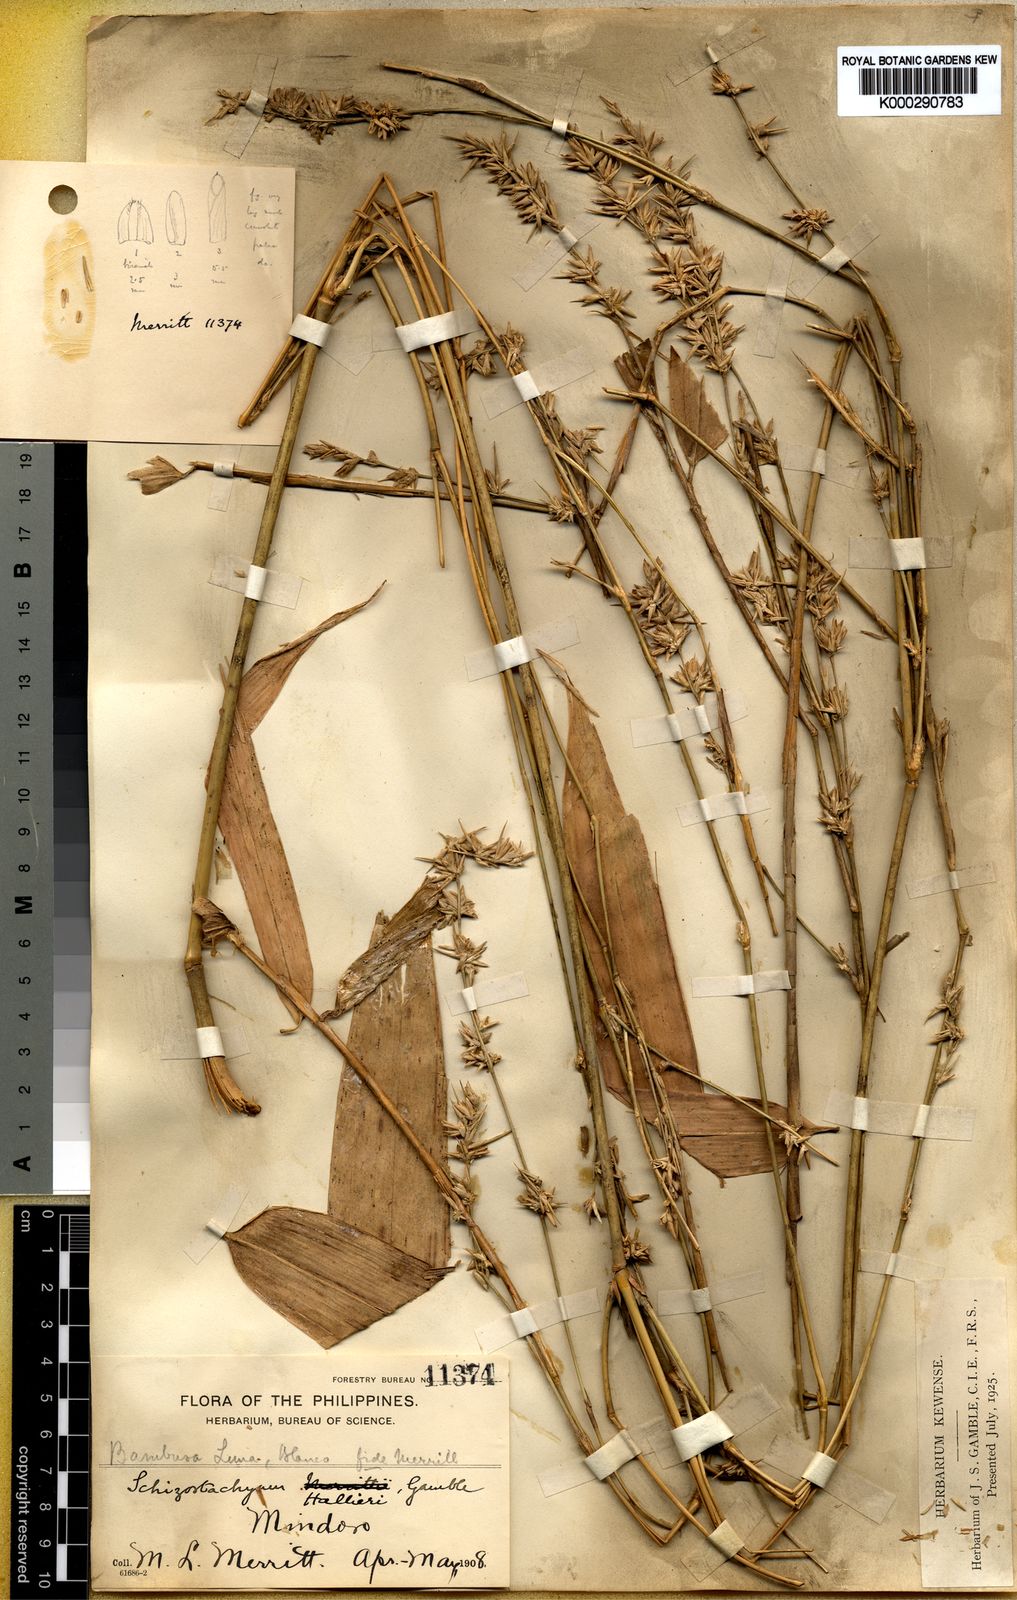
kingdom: Plantae
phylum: Tracheophyta
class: Liliopsida
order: Poales
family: Poaceae
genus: Schizostachyum
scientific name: Schizostachyum lima
